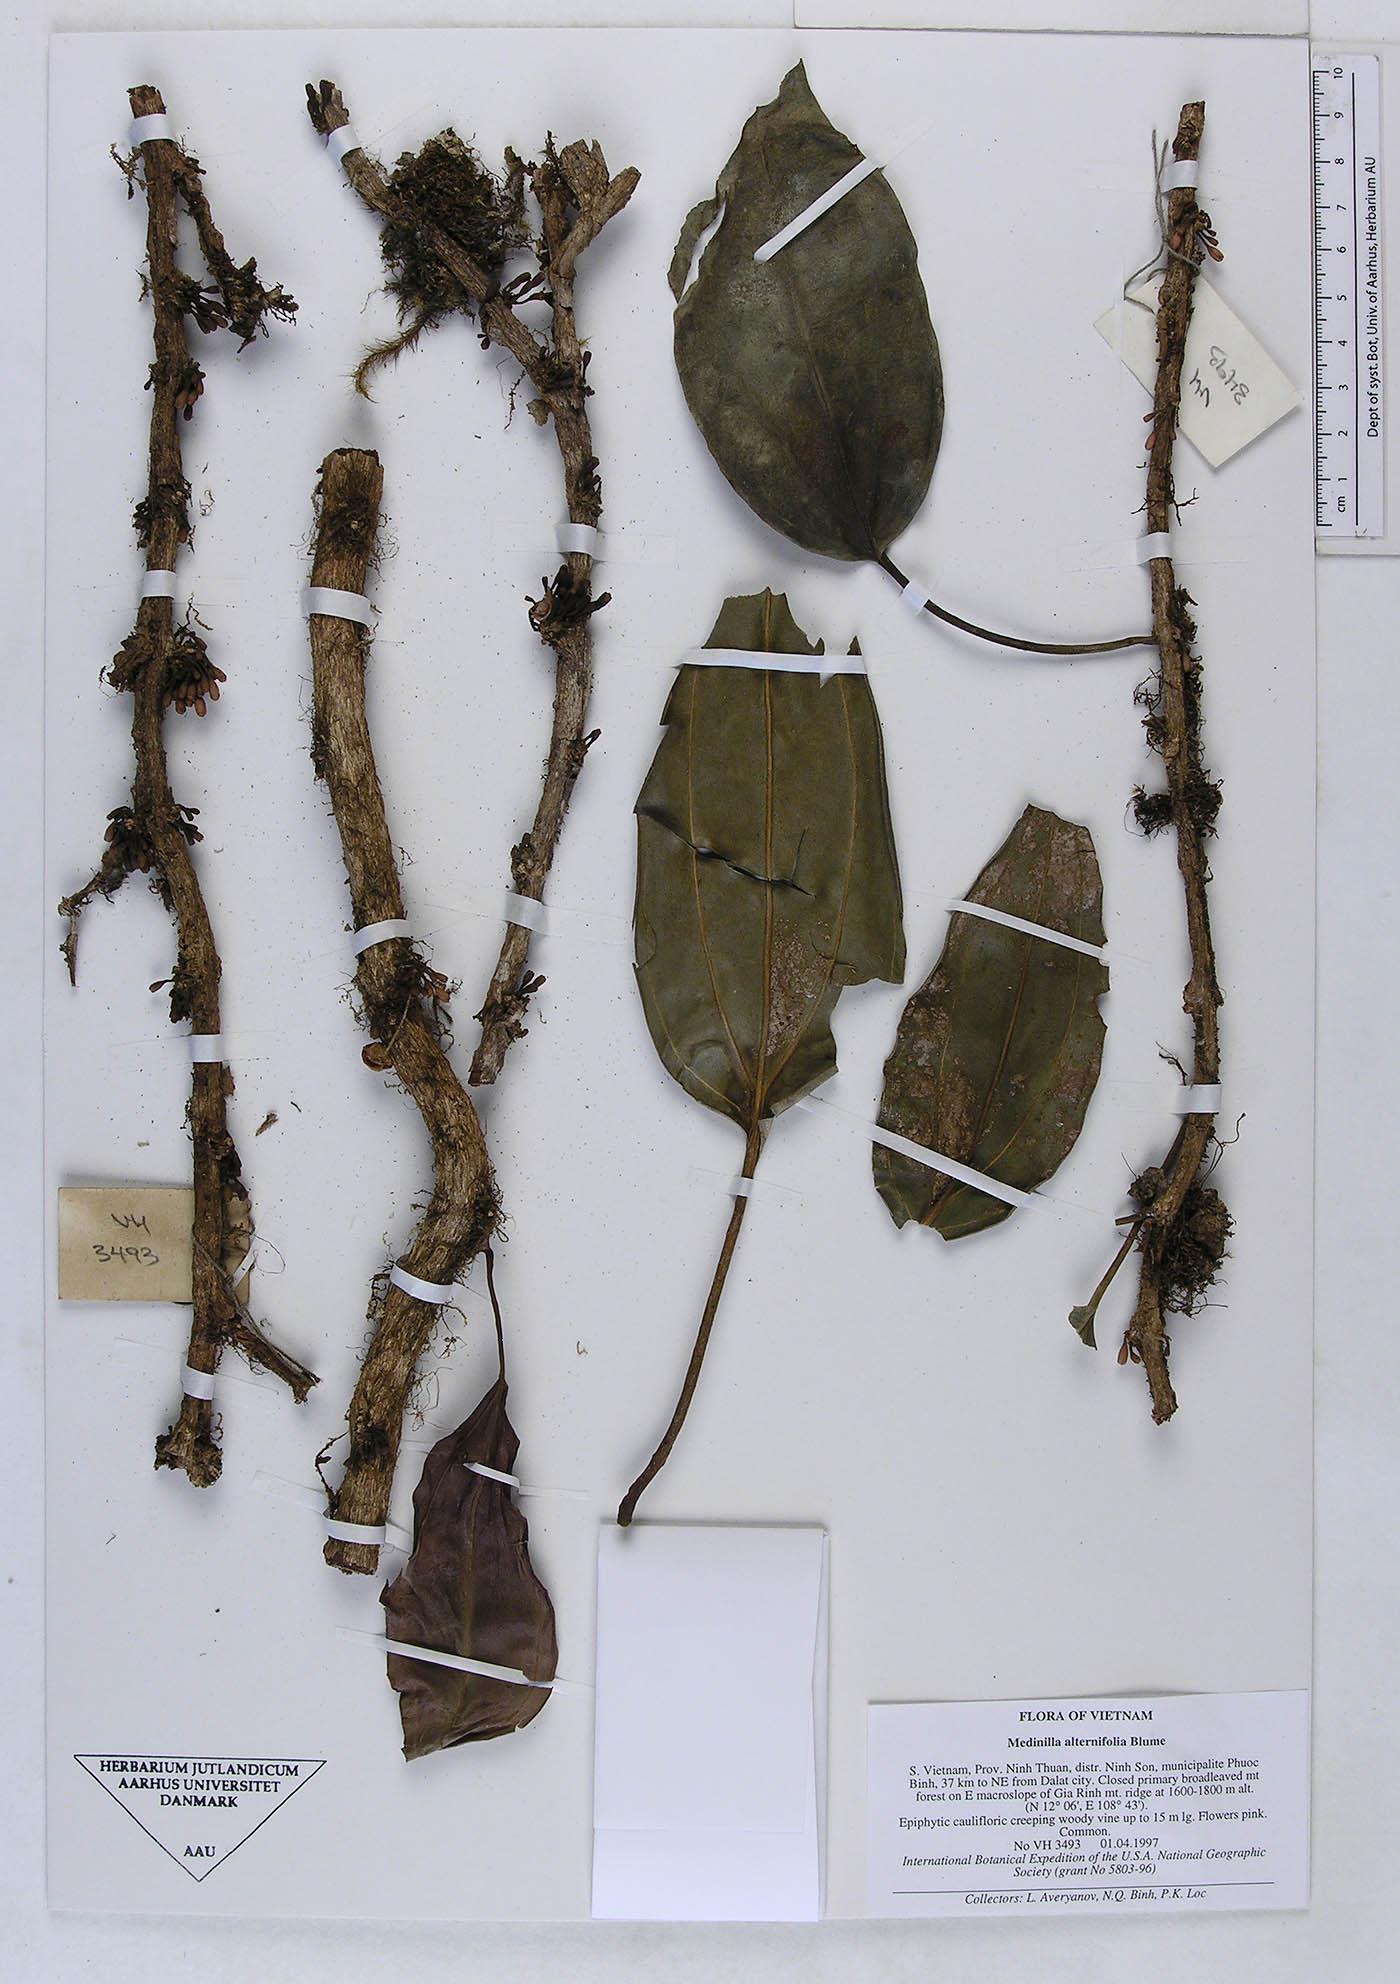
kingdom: Plantae
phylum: Tracheophyta
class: Magnoliopsida
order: Myrtales
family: Melastomataceae
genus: Heteroblemma
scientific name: Heteroblemma bisetosum
